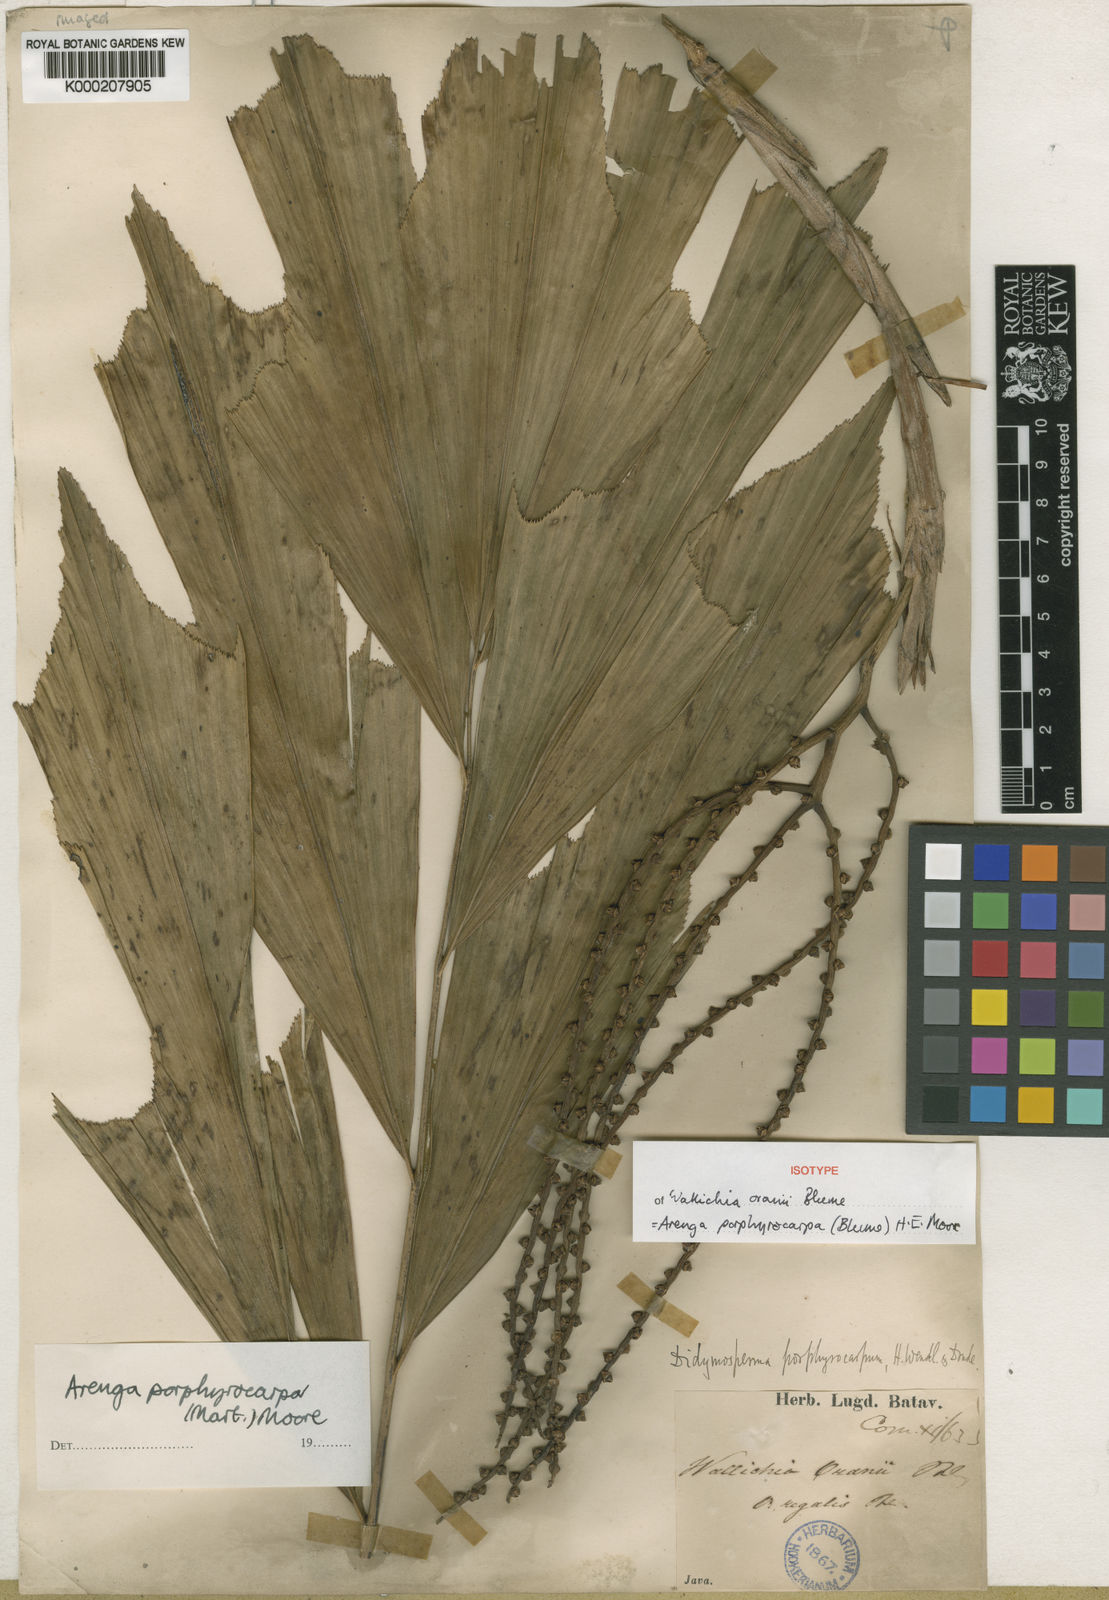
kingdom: Plantae
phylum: Tracheophyta
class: Liliopsida
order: Arecales
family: Arecaceae
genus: Arenga
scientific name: Arenga porphyrocarpa
